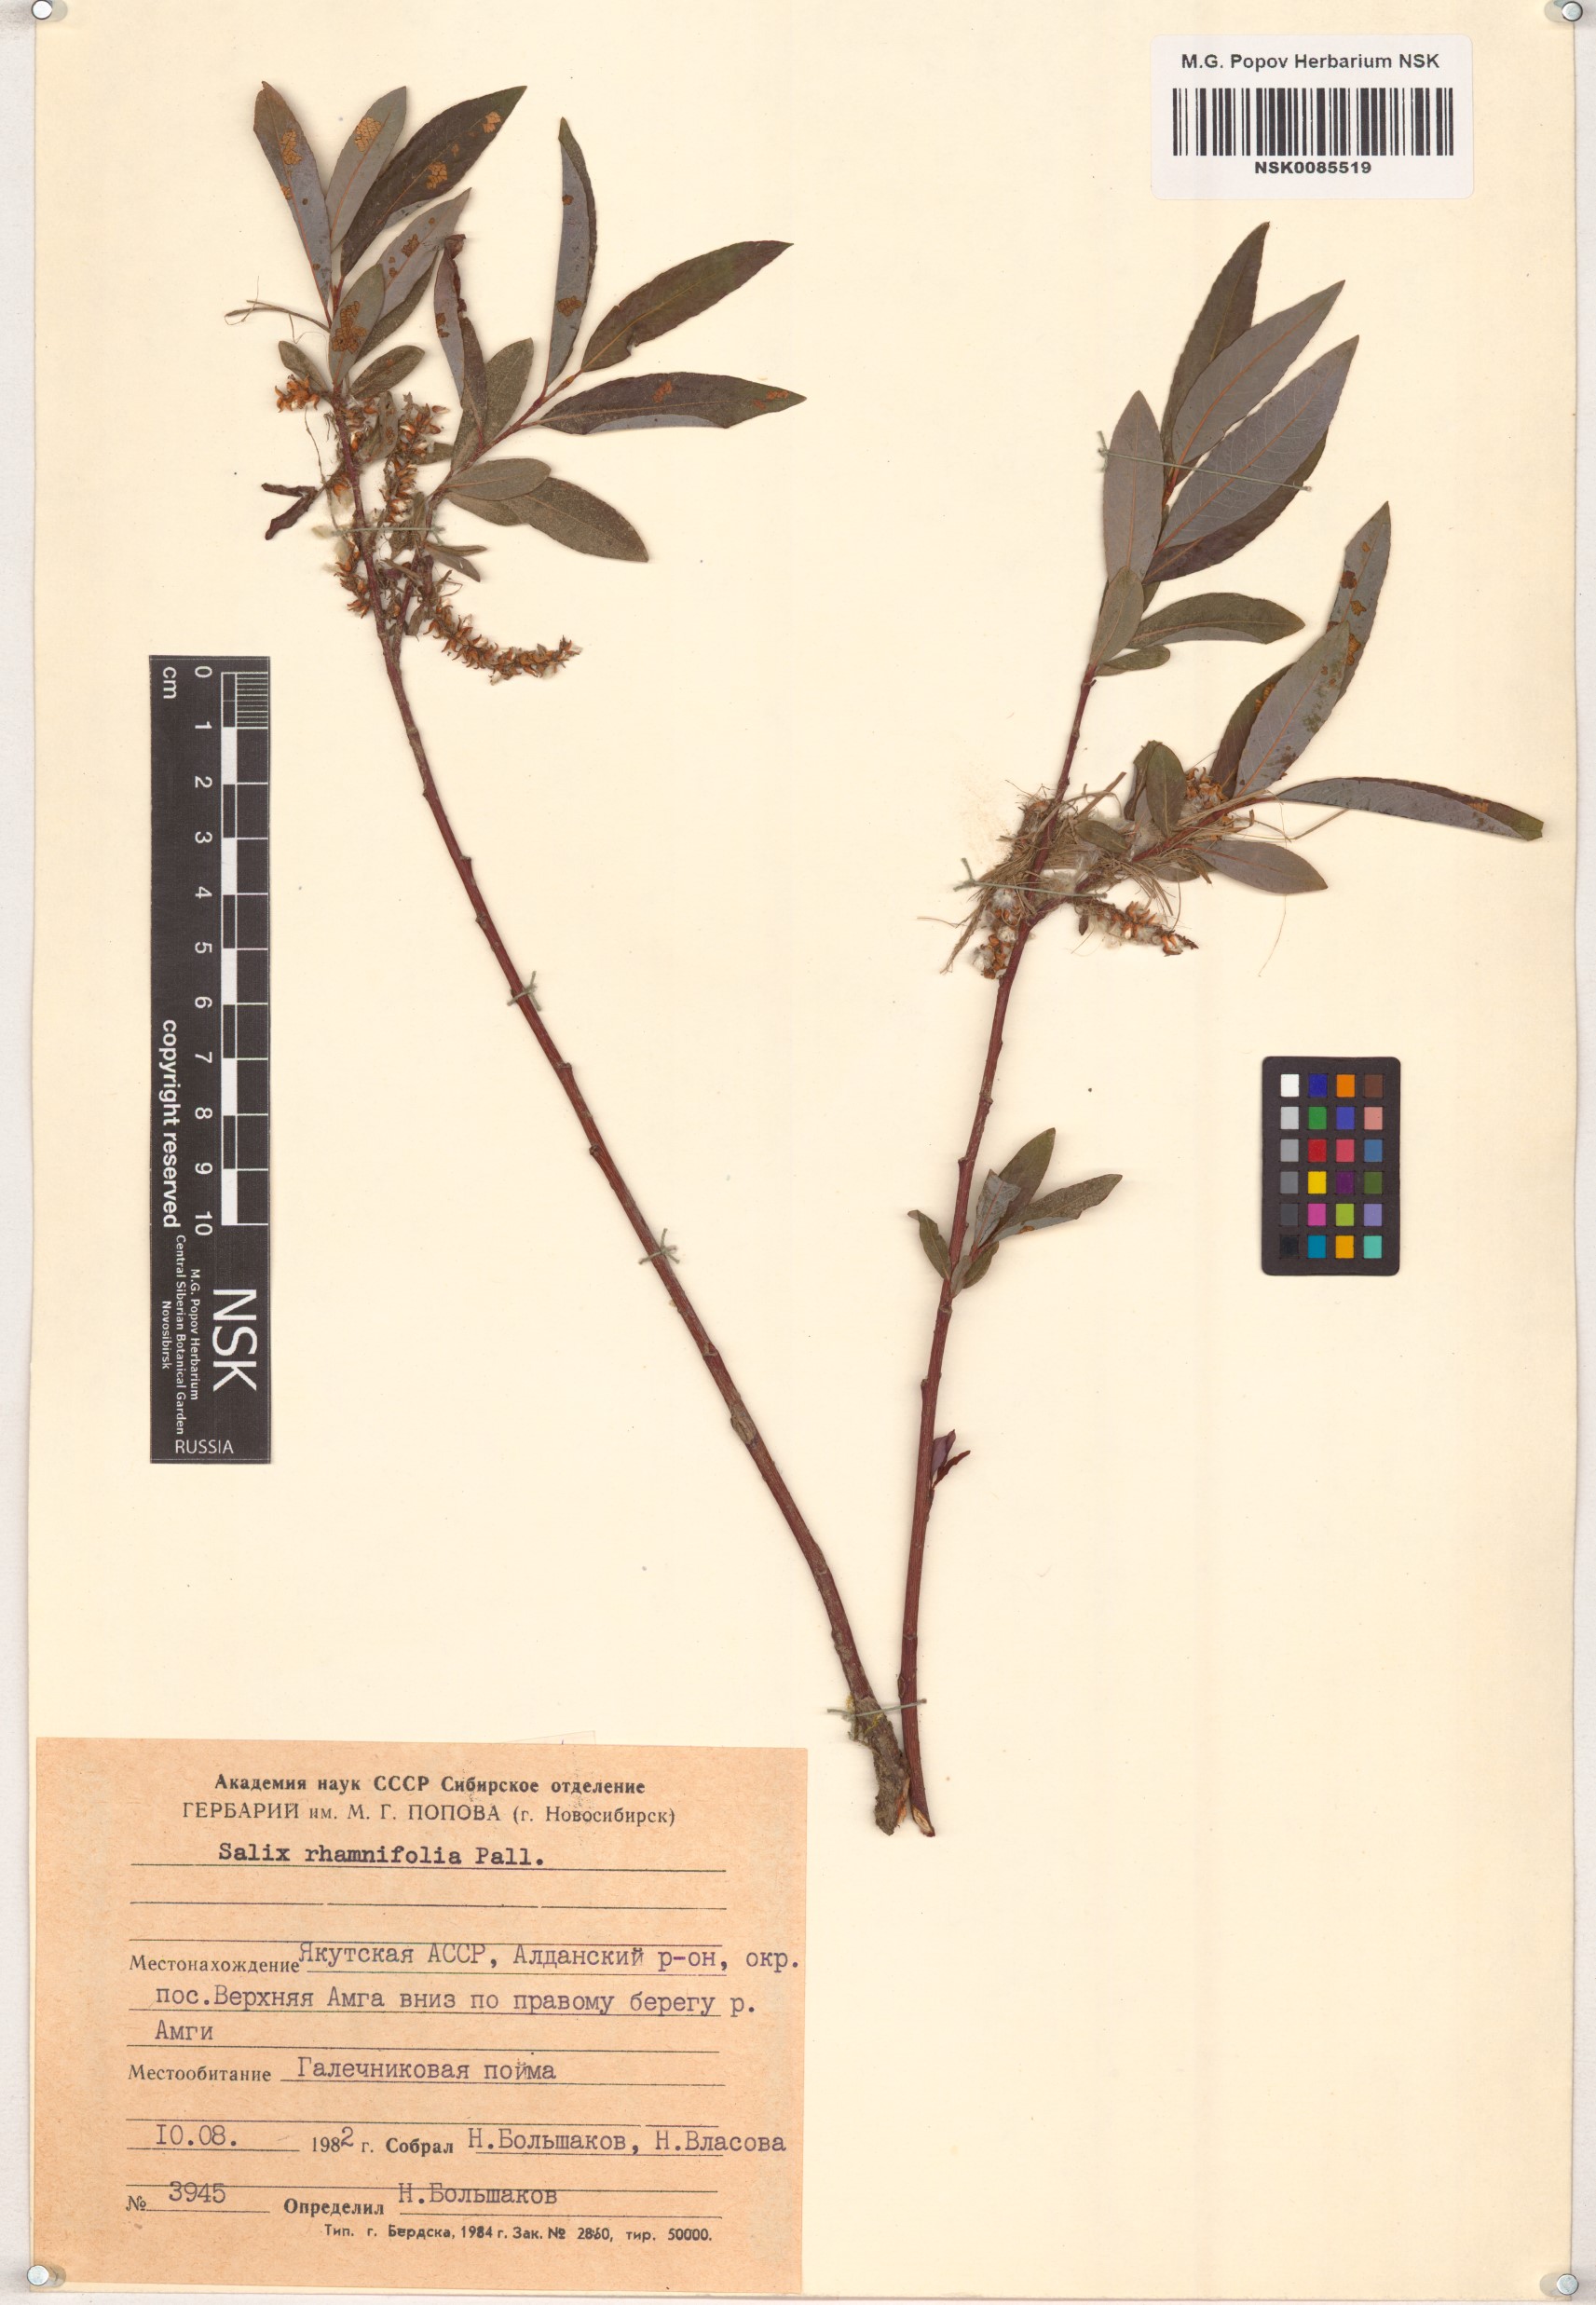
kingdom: Plantae
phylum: Tracheophyta
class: Magnoliopsida
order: Malpighiales
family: Salicaceae
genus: Salix
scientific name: Salix rhamnifolia
